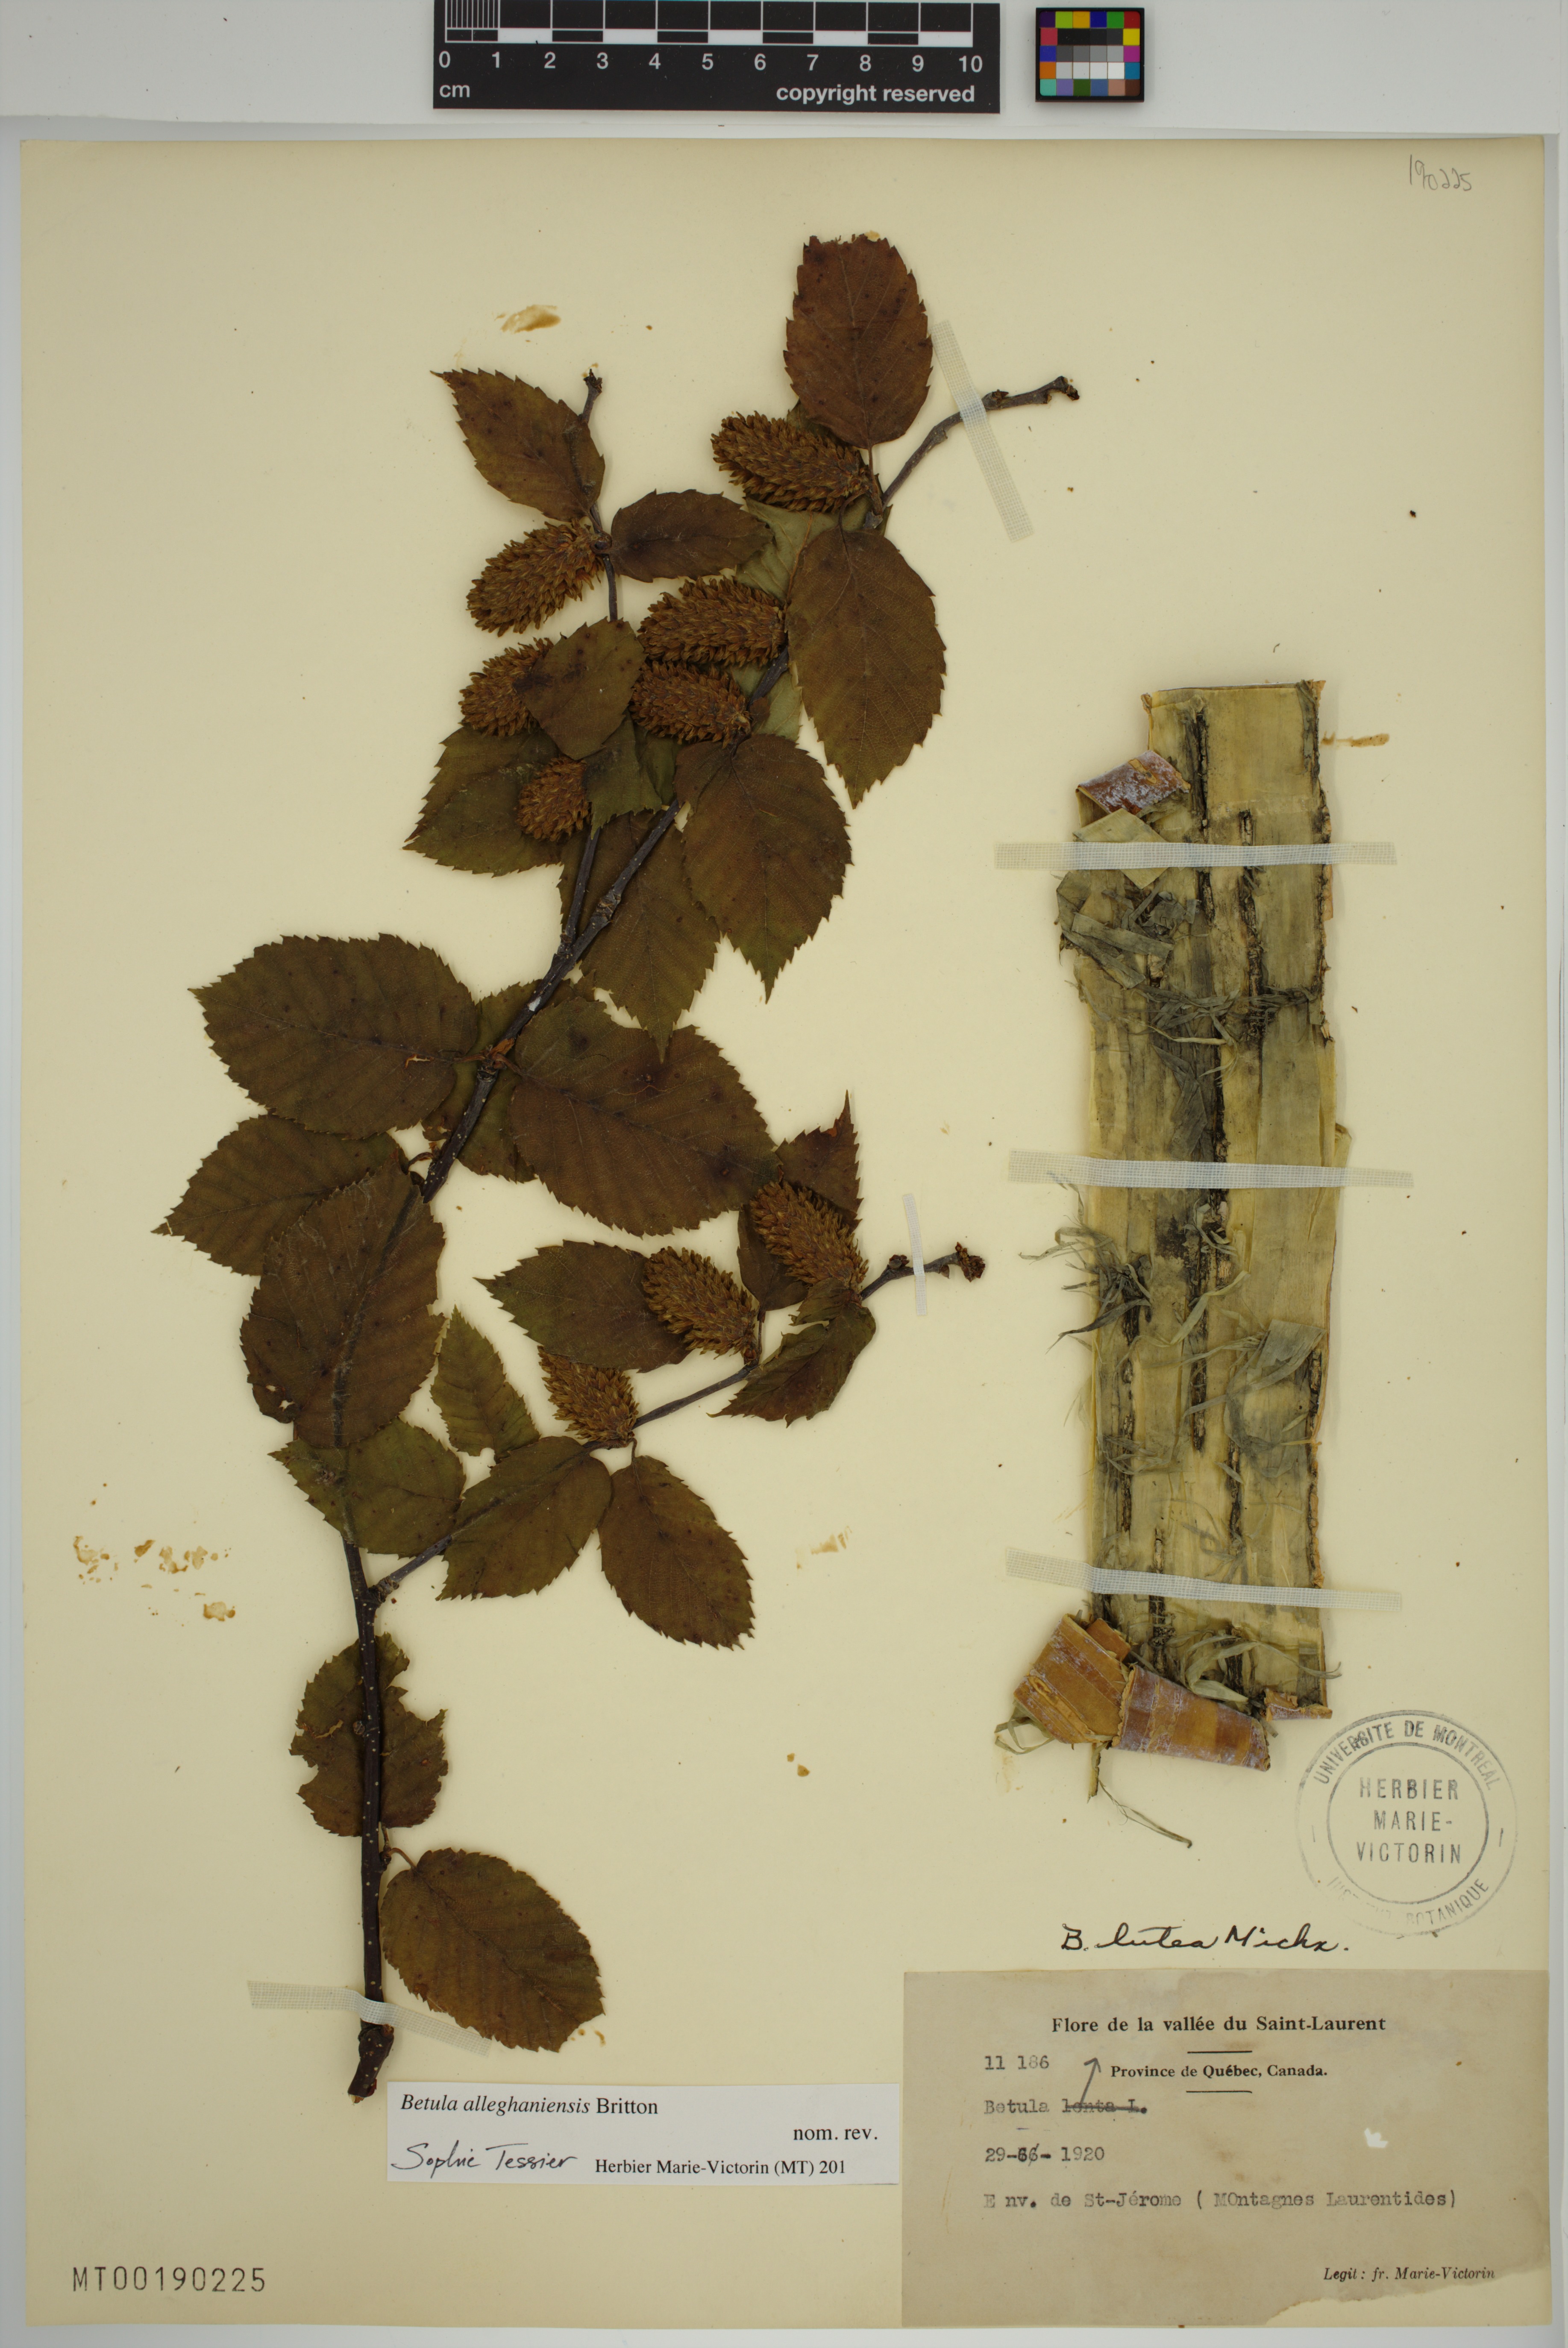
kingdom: Plantae
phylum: Tracheophyta
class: Magnoliopsida
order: Fagales
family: Betulaceae
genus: Betula
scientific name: Betula alleghaniensis
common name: Yellow birch
